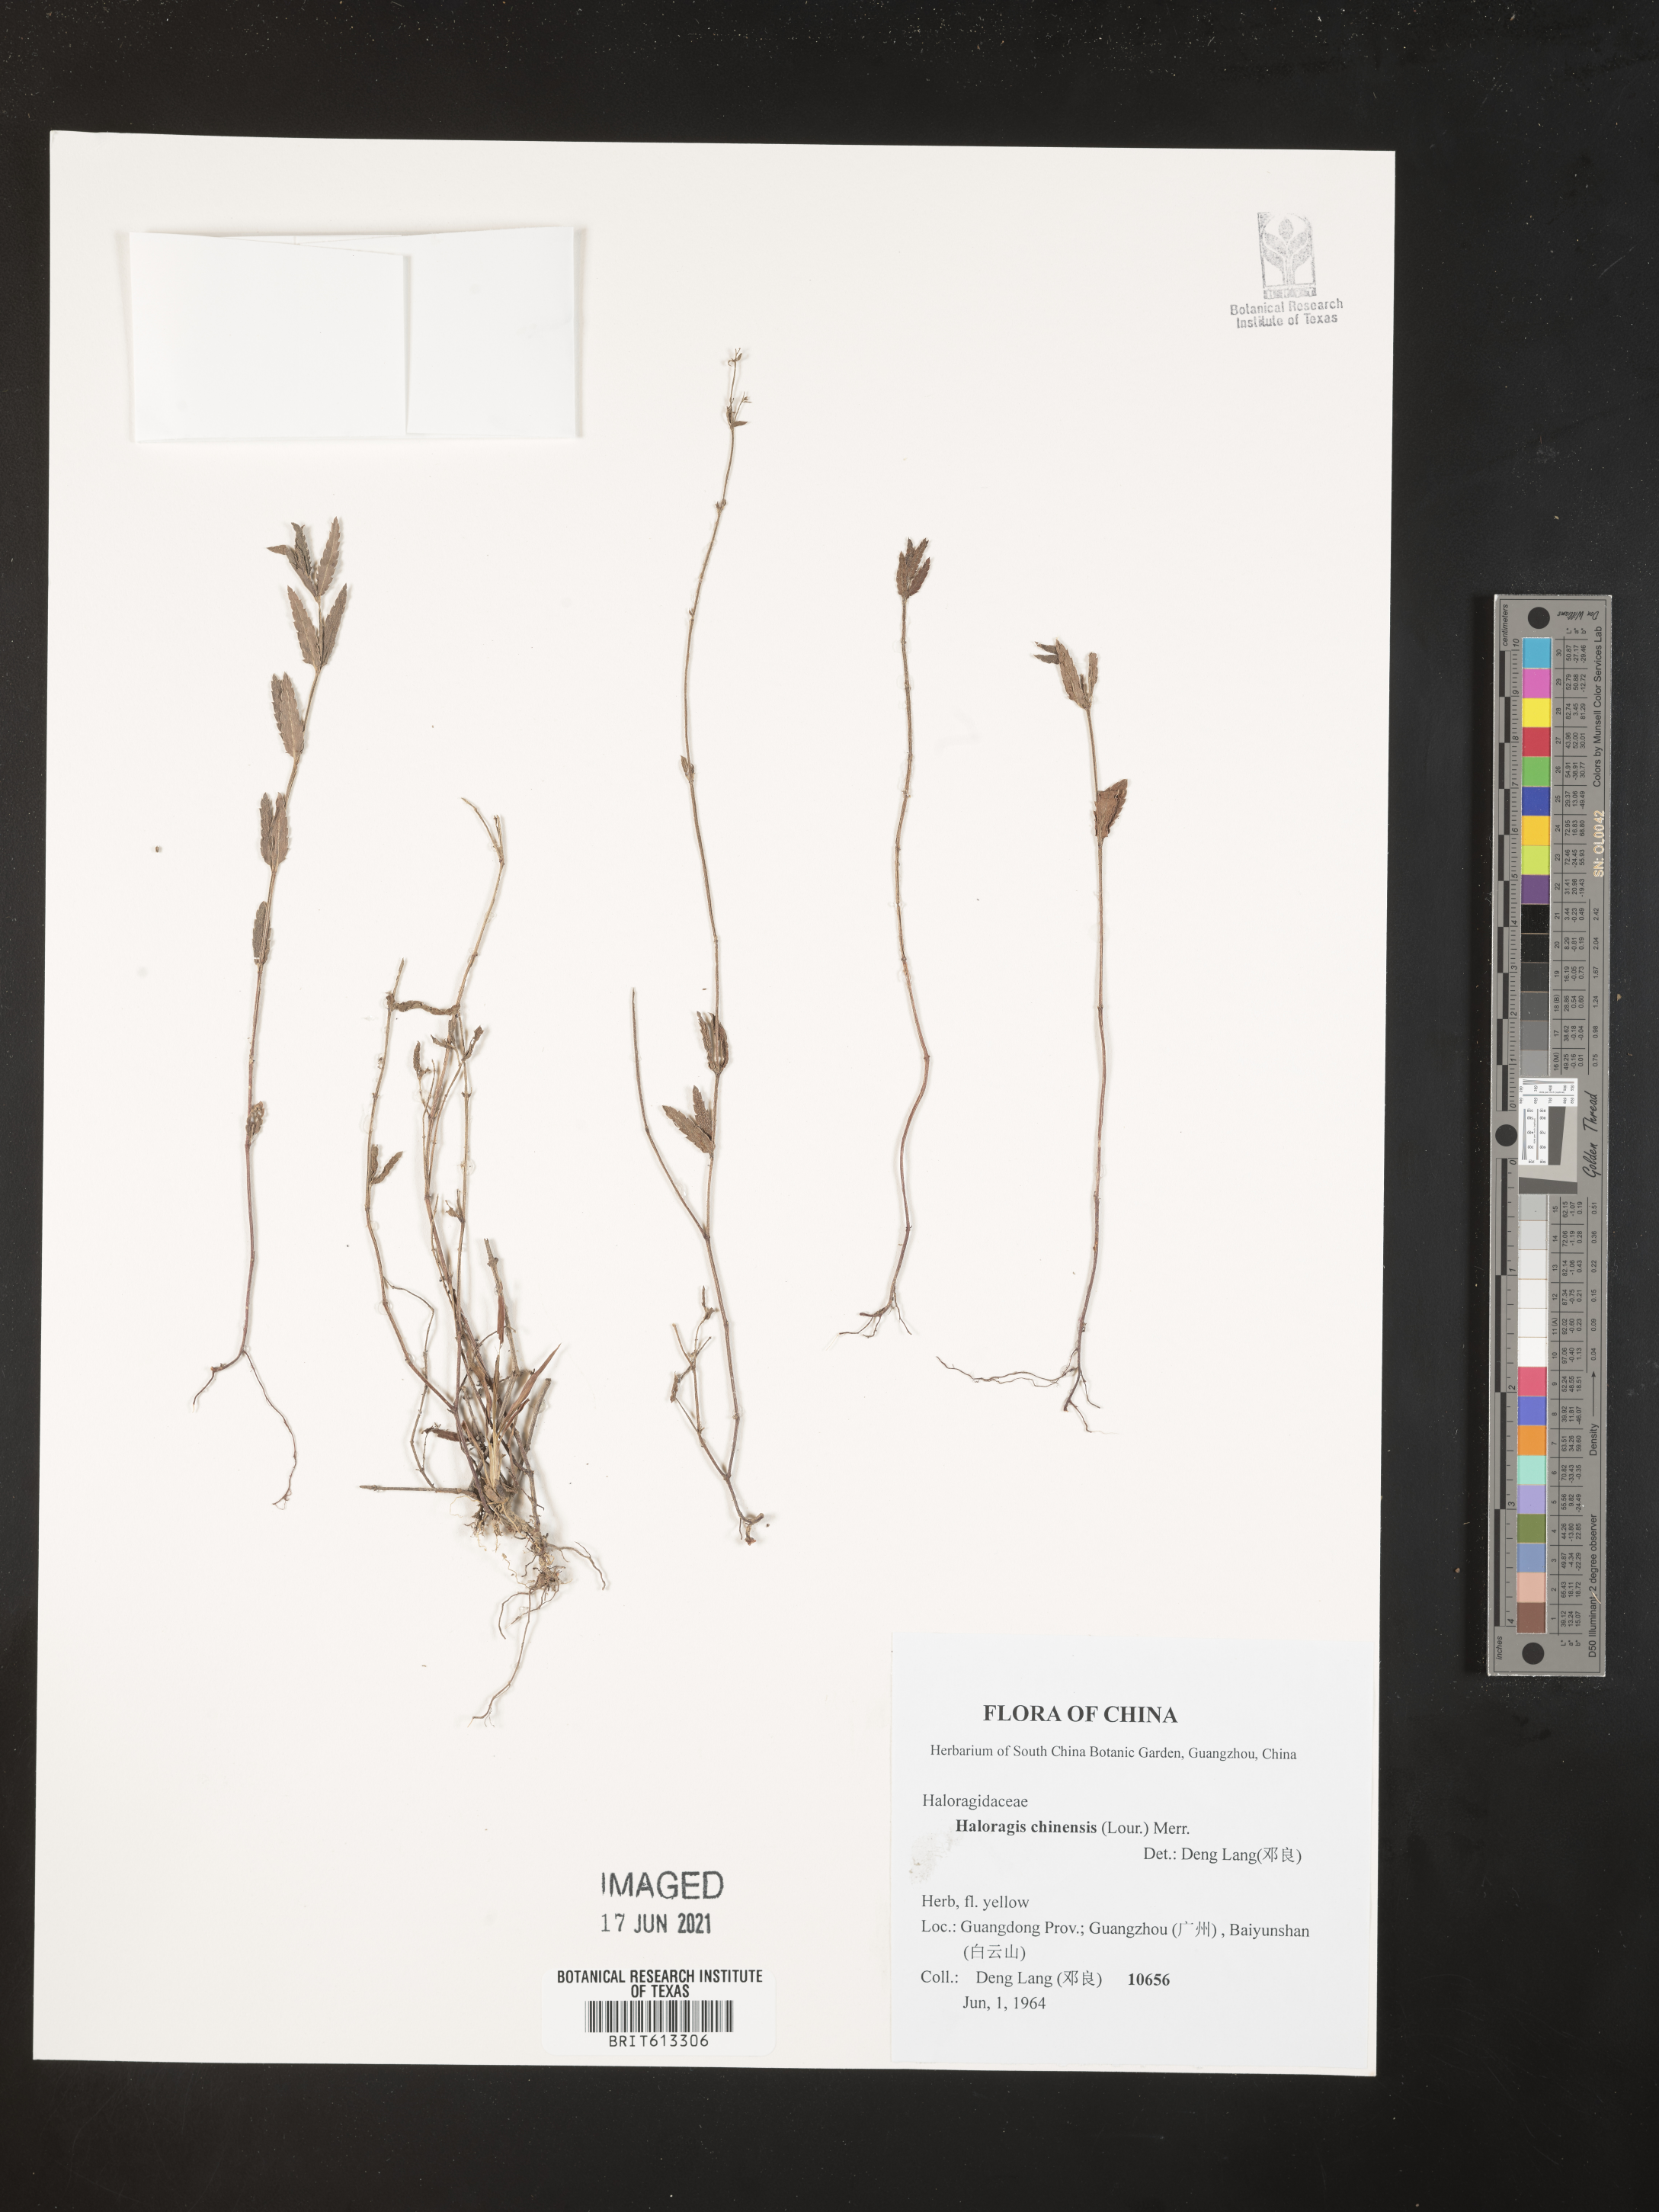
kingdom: Plantae
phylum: Tracheophyta
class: Magnoliopsida
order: Saxifragales
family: Haloragaceae
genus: Gonocarpus
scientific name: Gonocarpus chinensis
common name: Chinese raspwort
